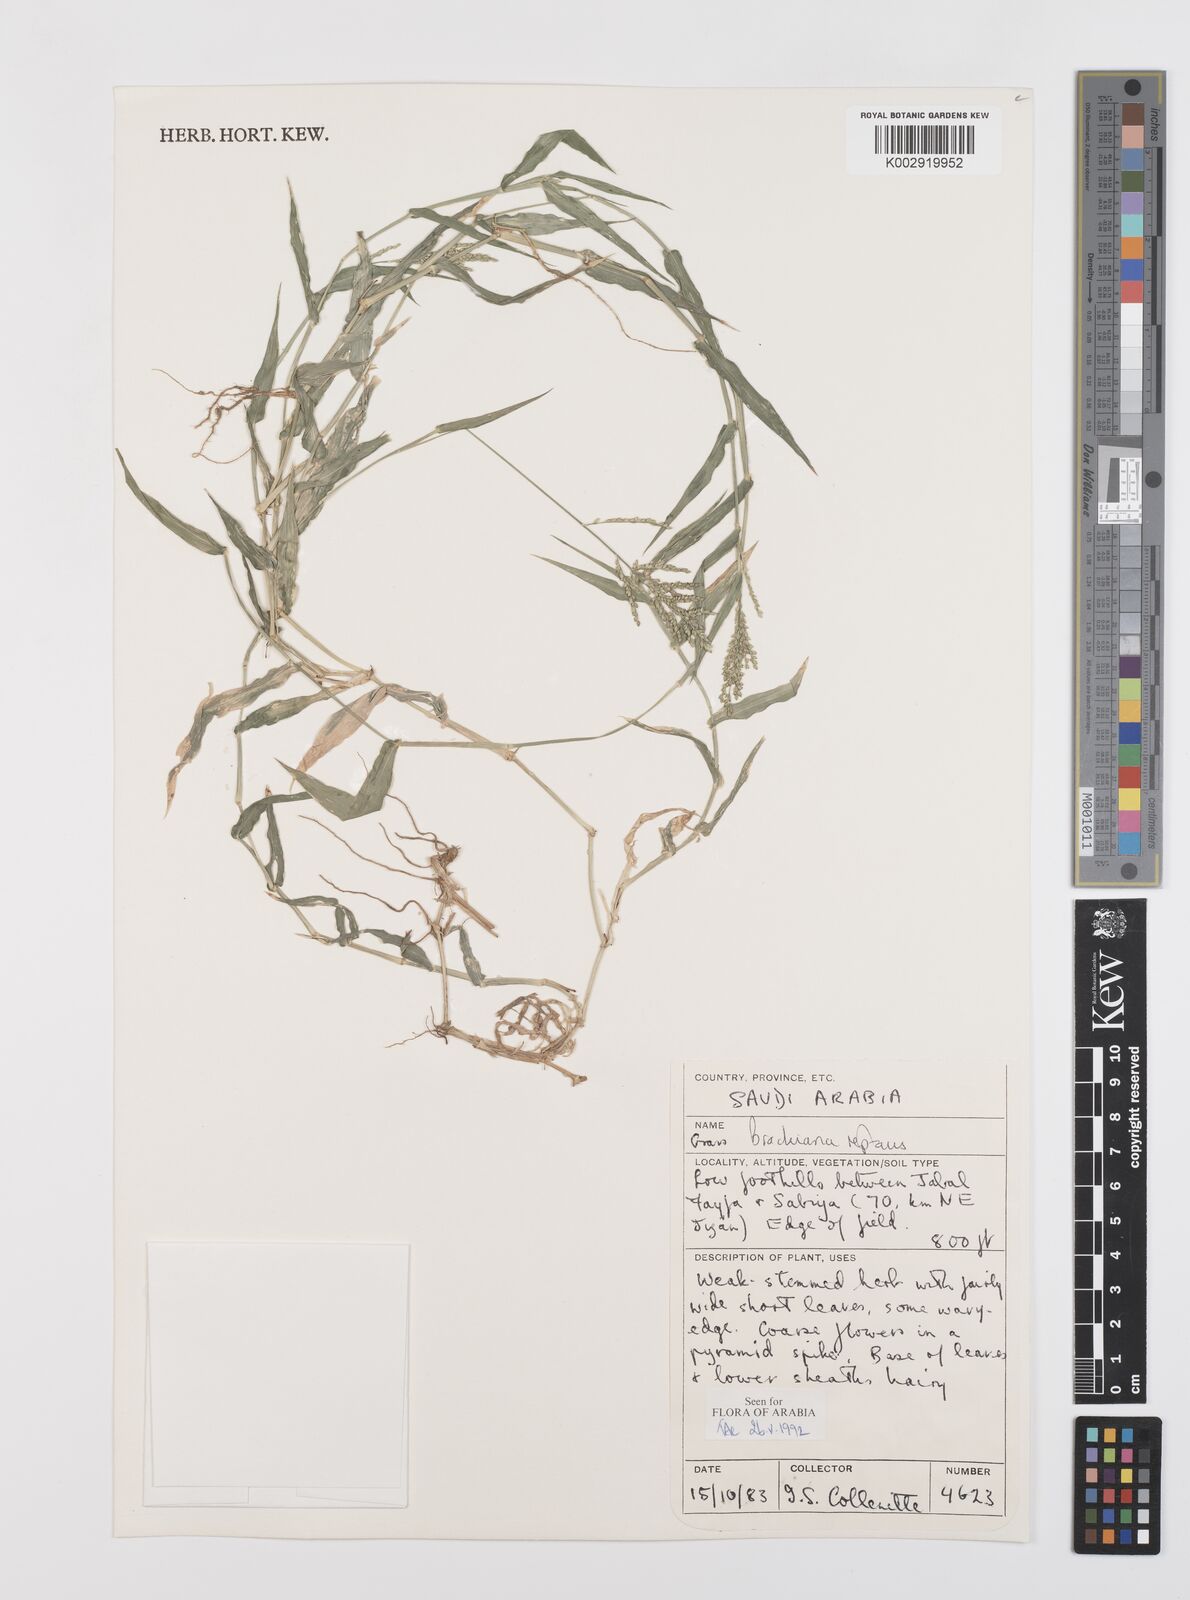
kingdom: Plantae
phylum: Tracheophyta
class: Liliopsida
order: Poales
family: Poaceae
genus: Urochloa
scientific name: Urochloa reptans
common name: Sprawling signalgrass
